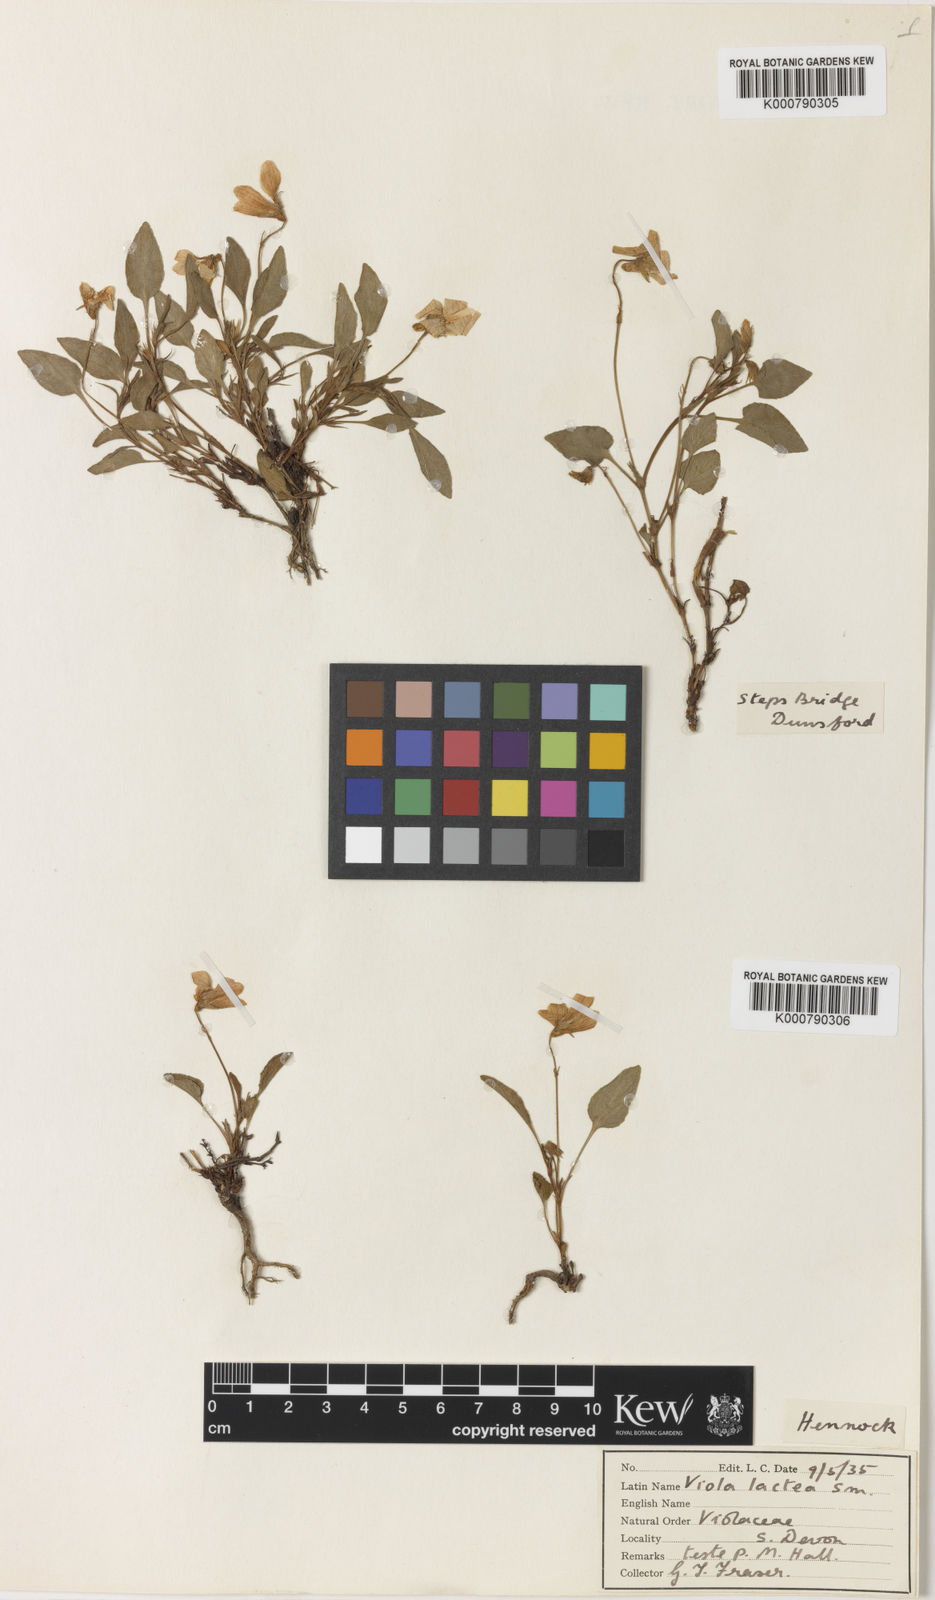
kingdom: Plantae
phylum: Tracheophyta
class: Magnoliopsida
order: Malpighiales
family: Violaceae
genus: Viola
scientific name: Viola lactea
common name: Pale dog-violet
